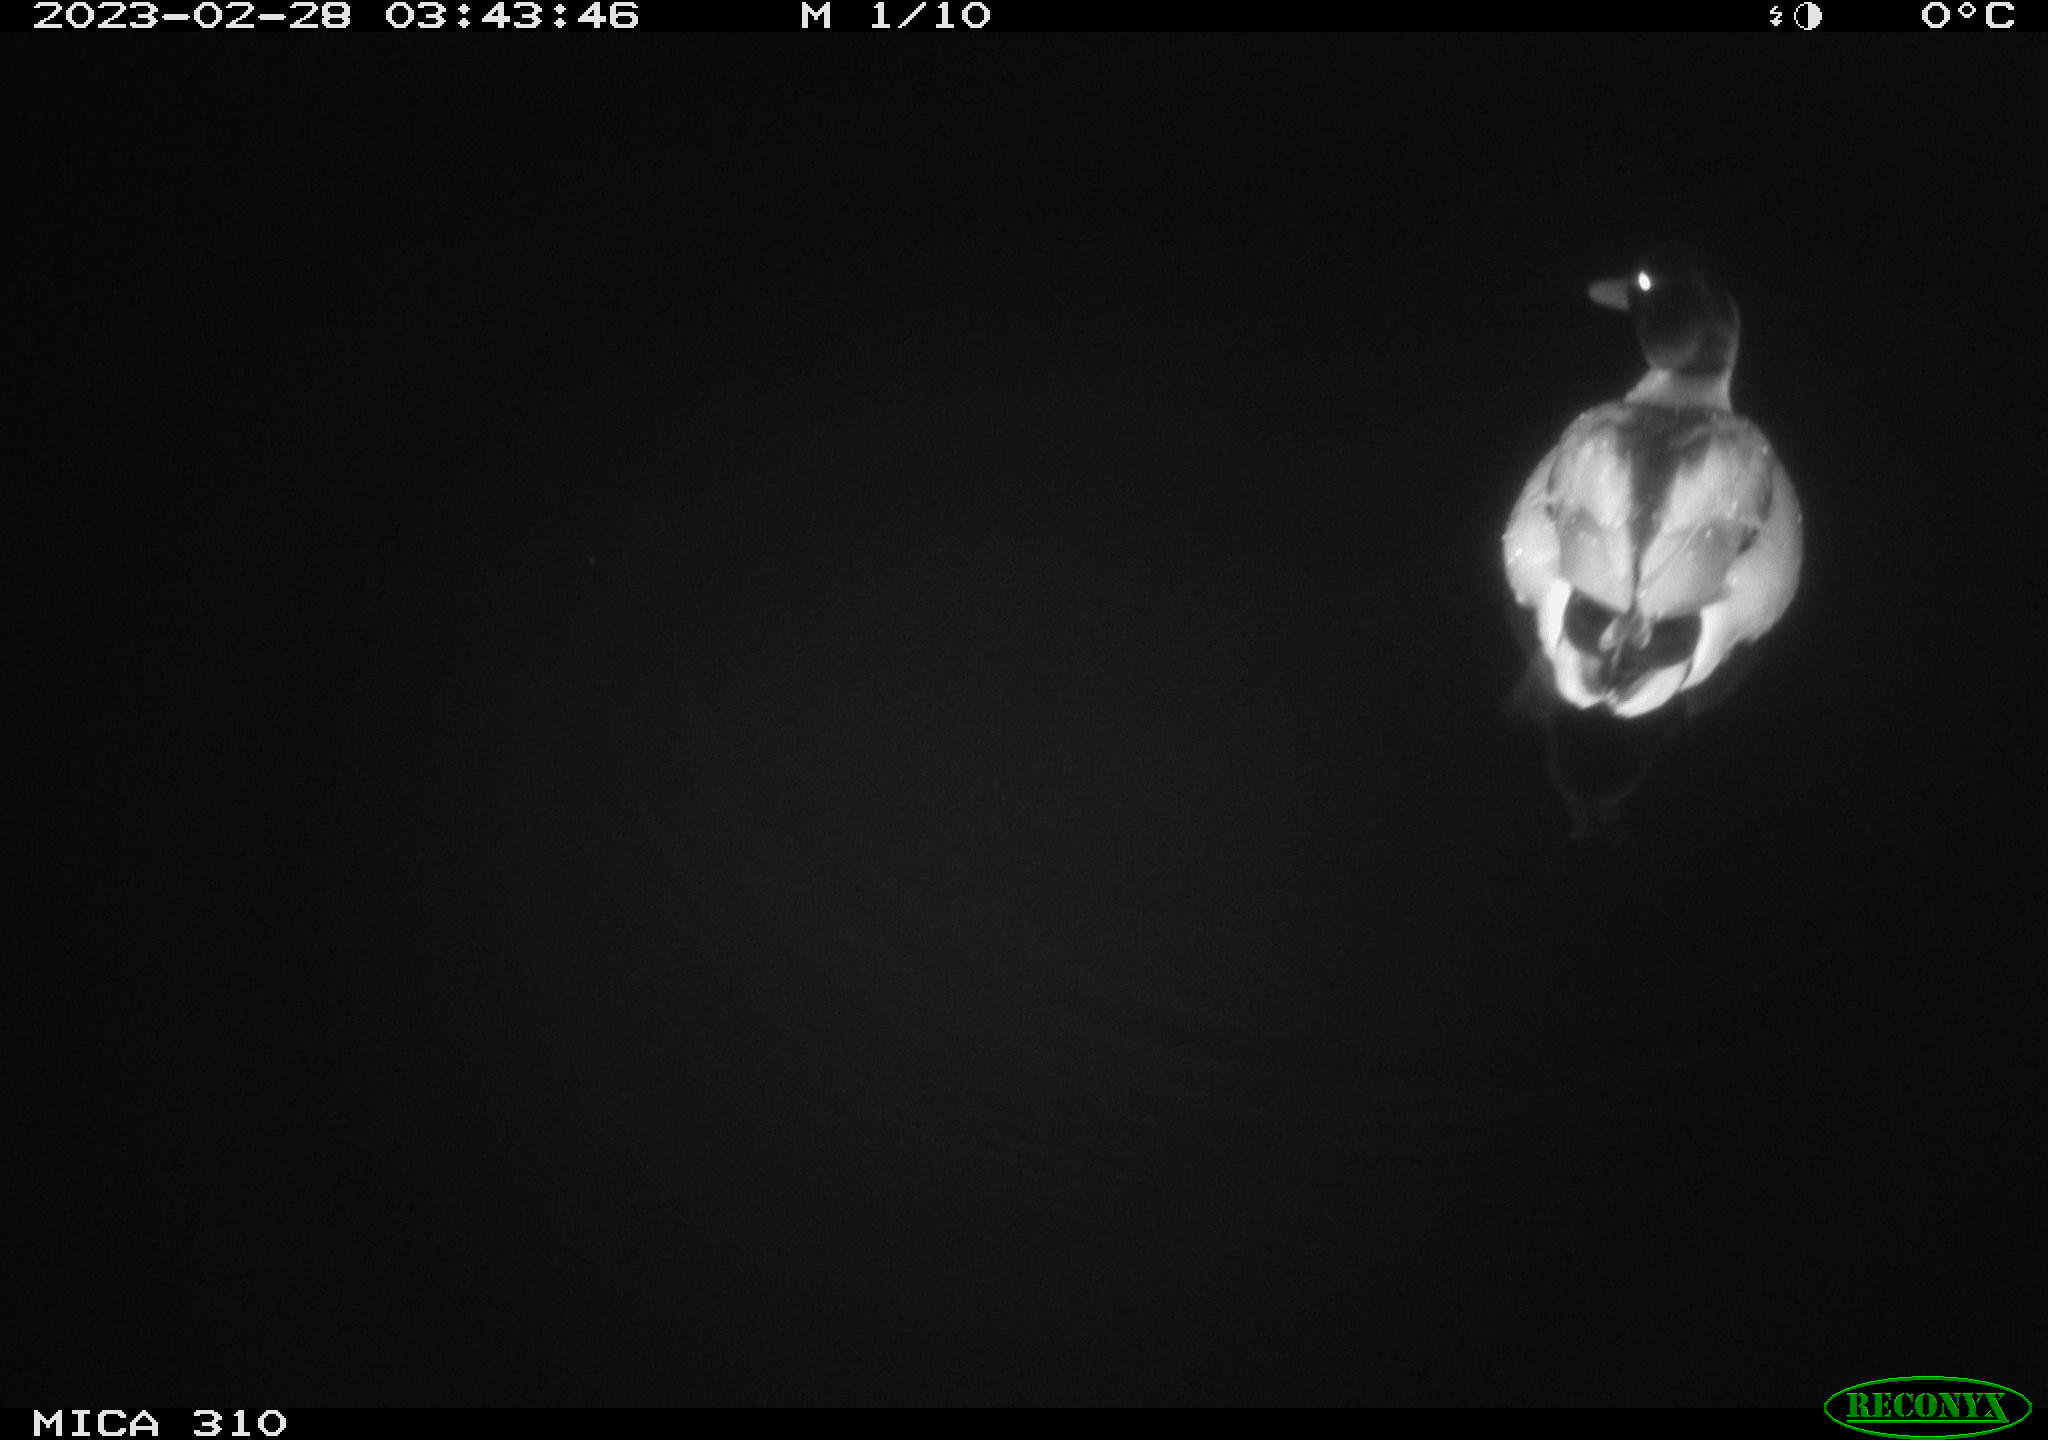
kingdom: Animalia
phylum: Chordata
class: Aves
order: Anseriformes
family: Anatidae
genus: Anas
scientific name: Anas
